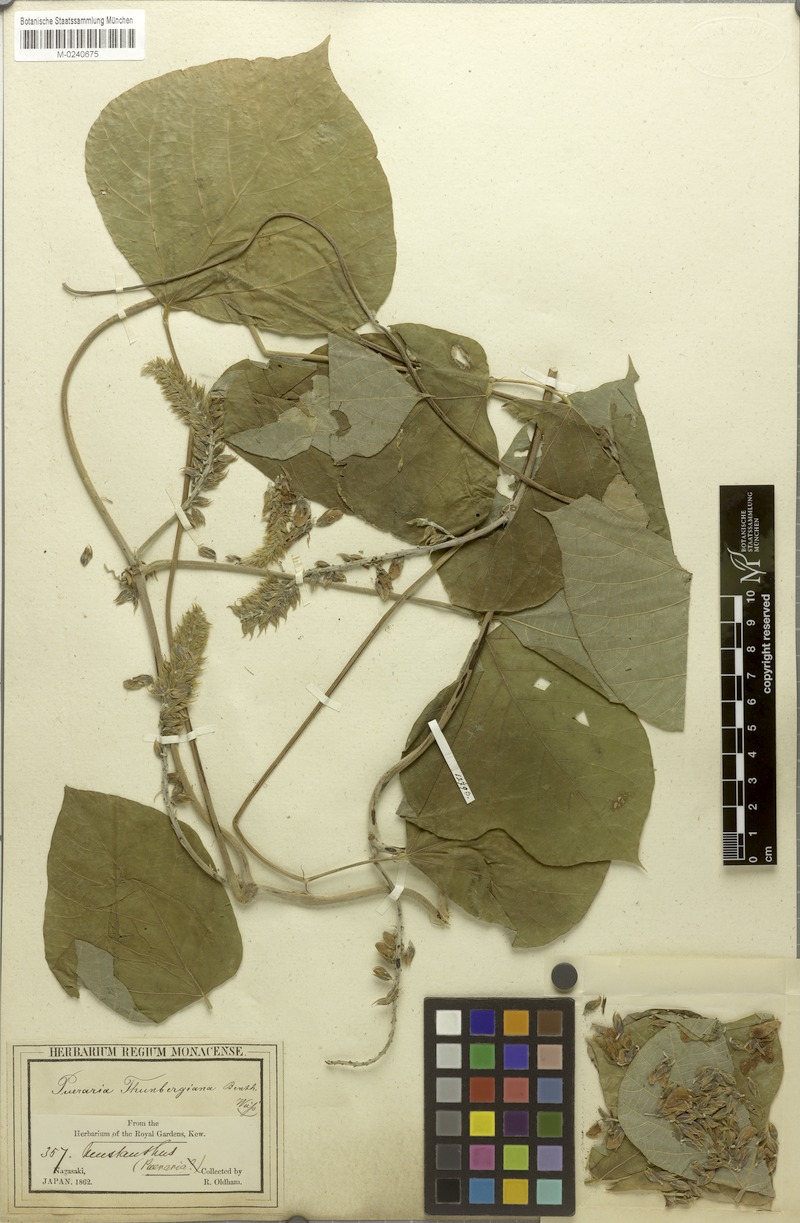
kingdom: Plantae
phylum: Tracheophyta
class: Magnoliopsida
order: Fabales
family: Fabaceae
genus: Pueraria
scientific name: Pueraria montana
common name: Kudzu
